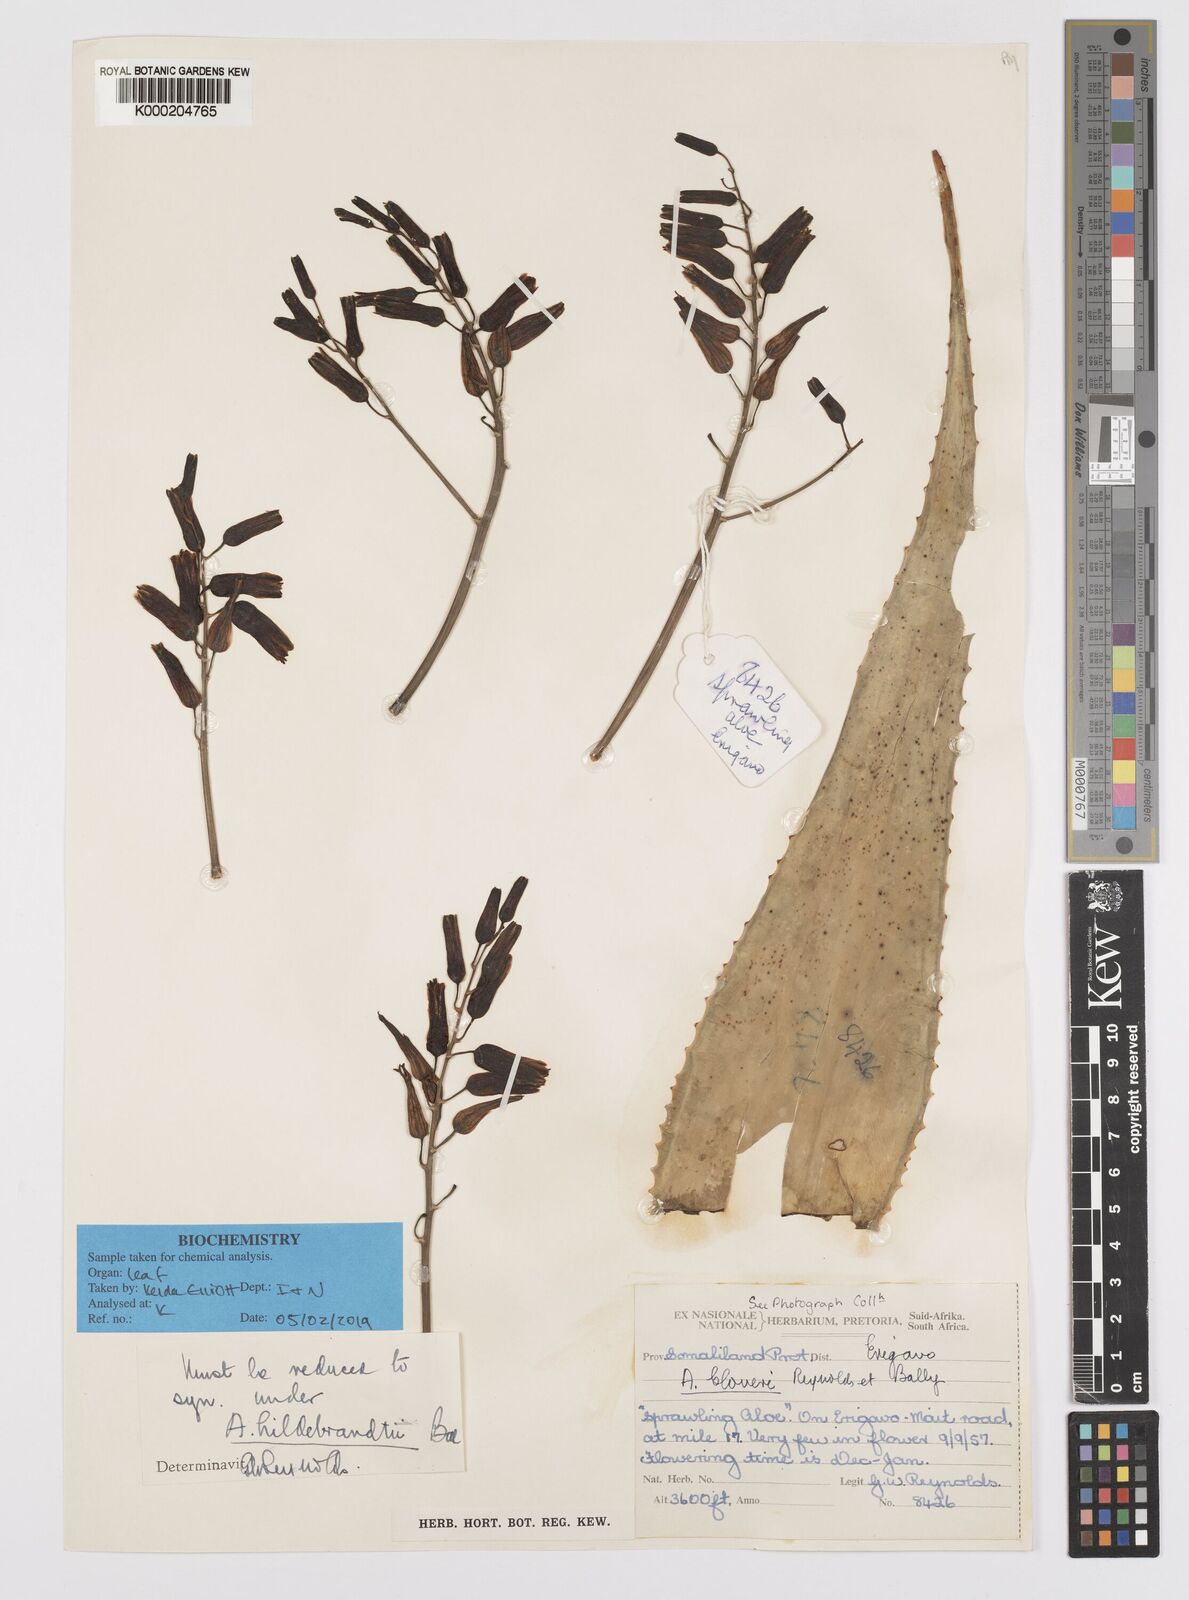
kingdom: Plantae
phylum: Tracheophyta
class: Liliopsida
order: Asparagales
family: Asphodelaceae
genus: Aloe
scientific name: Aloe hildebrandtii
